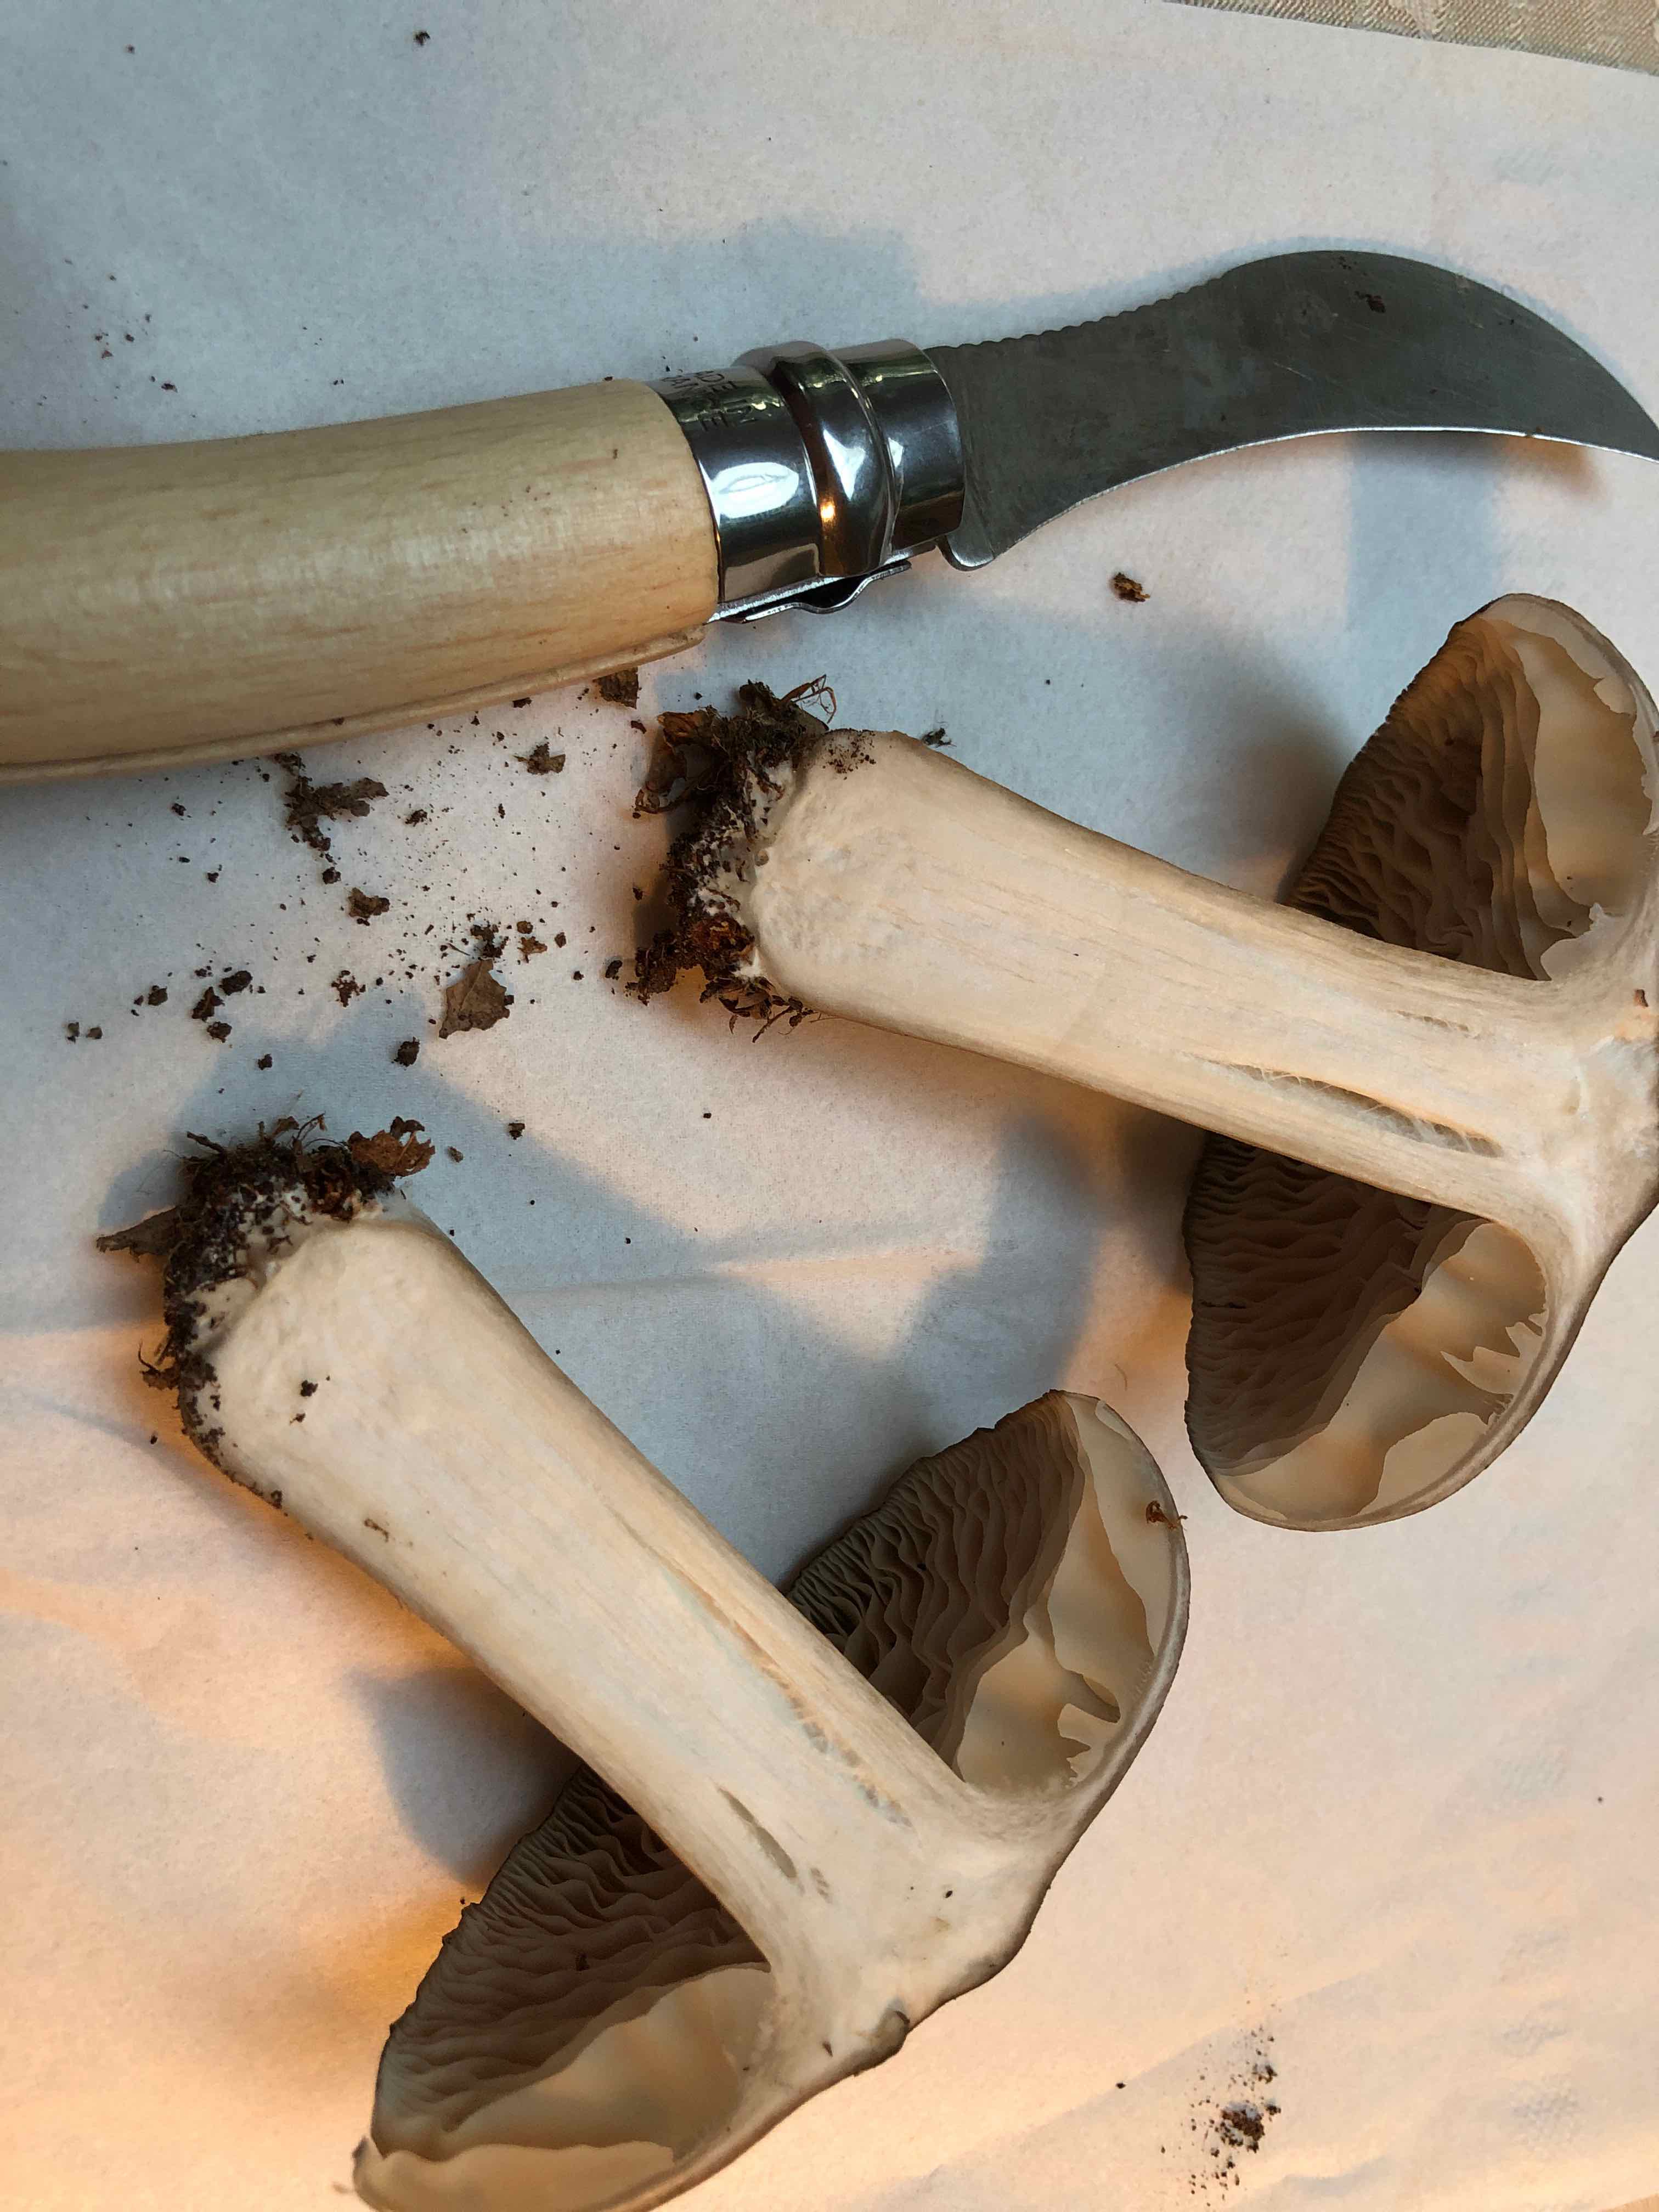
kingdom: Fungi
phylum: Basidiomycota
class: Agaricomycetes
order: Agaricales
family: Tricholomataceae
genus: Megacollybia
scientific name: Megacollybia platyphylla
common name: bredbladet væbnerhat
